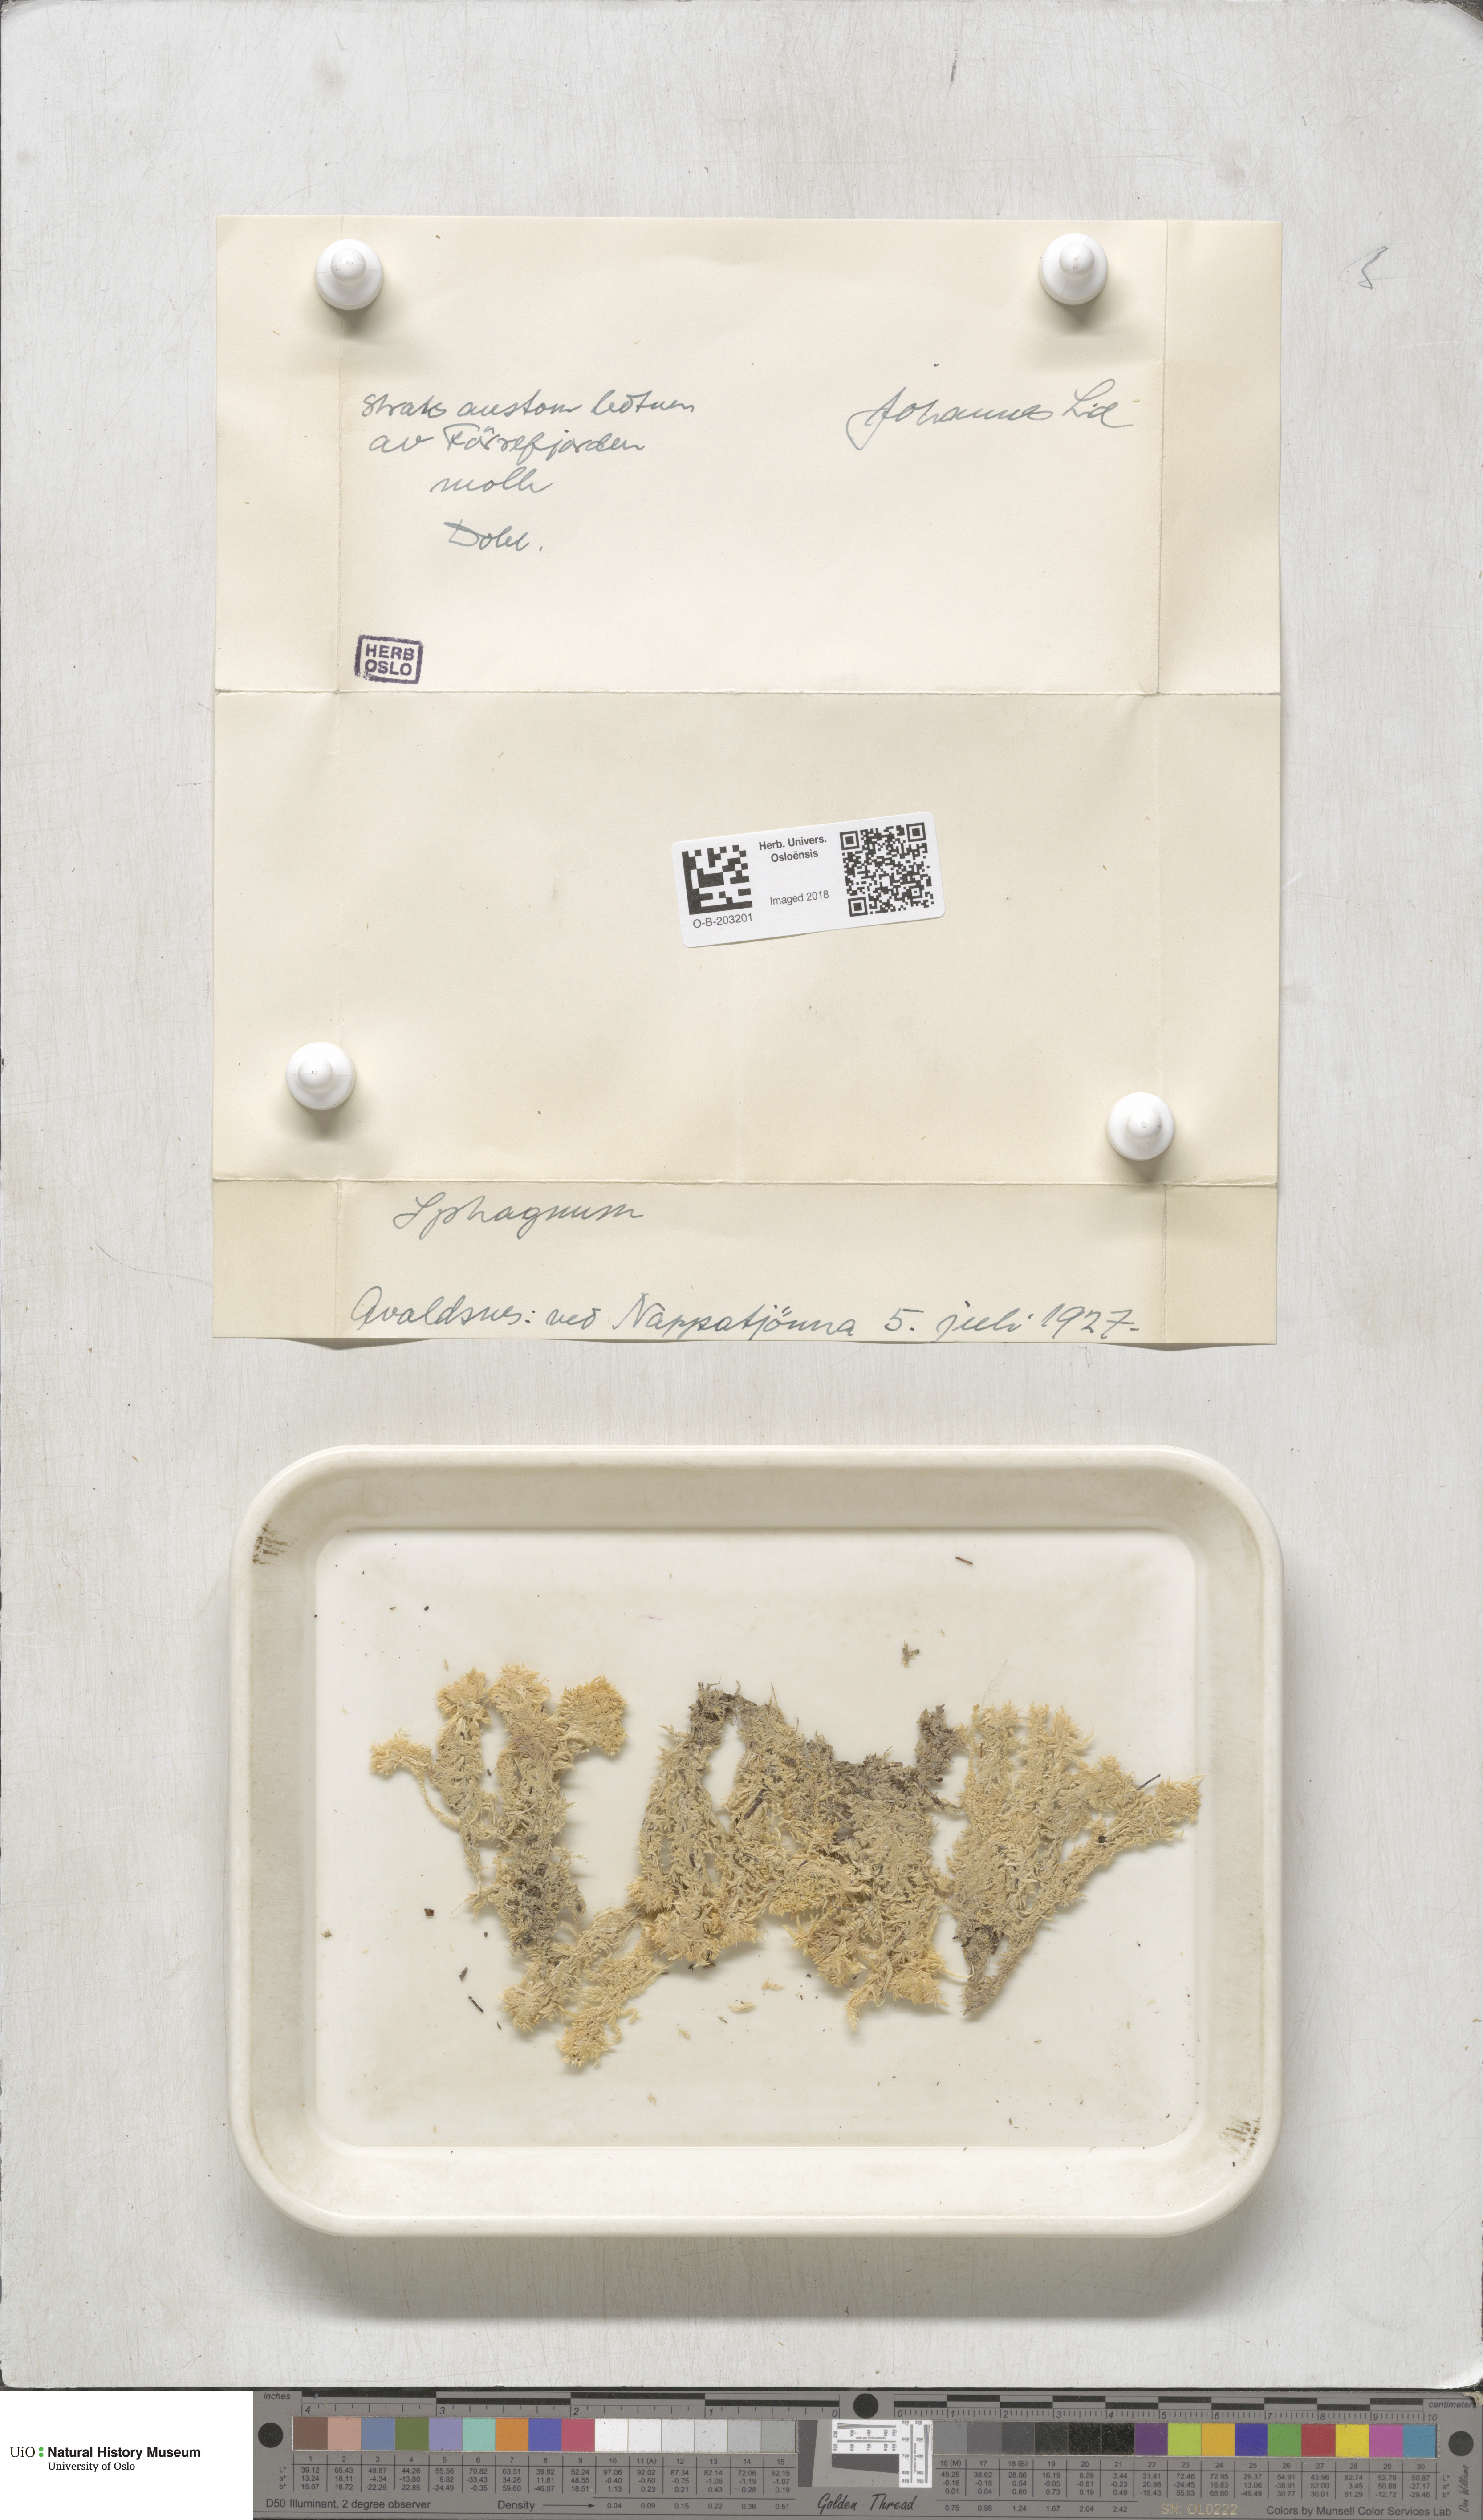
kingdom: Plantae
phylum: Bryophyta
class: Sphagnopsida
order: Sphagnales
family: Sphagnaceae
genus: Sphagnum
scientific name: Sphagnum molle
